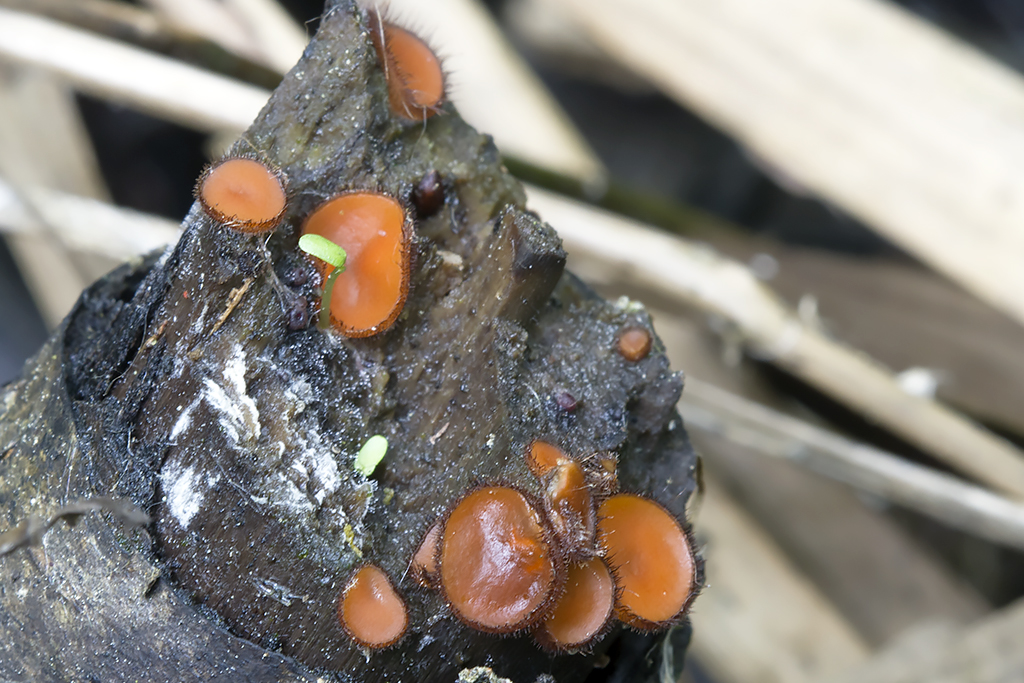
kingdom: Fungi
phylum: Ascomycota
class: Pezizomycetes
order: Pezizales
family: Pyronemataceae
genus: Scutellinia
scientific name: Scutellinia scutellata
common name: frynset skjoldbæger
